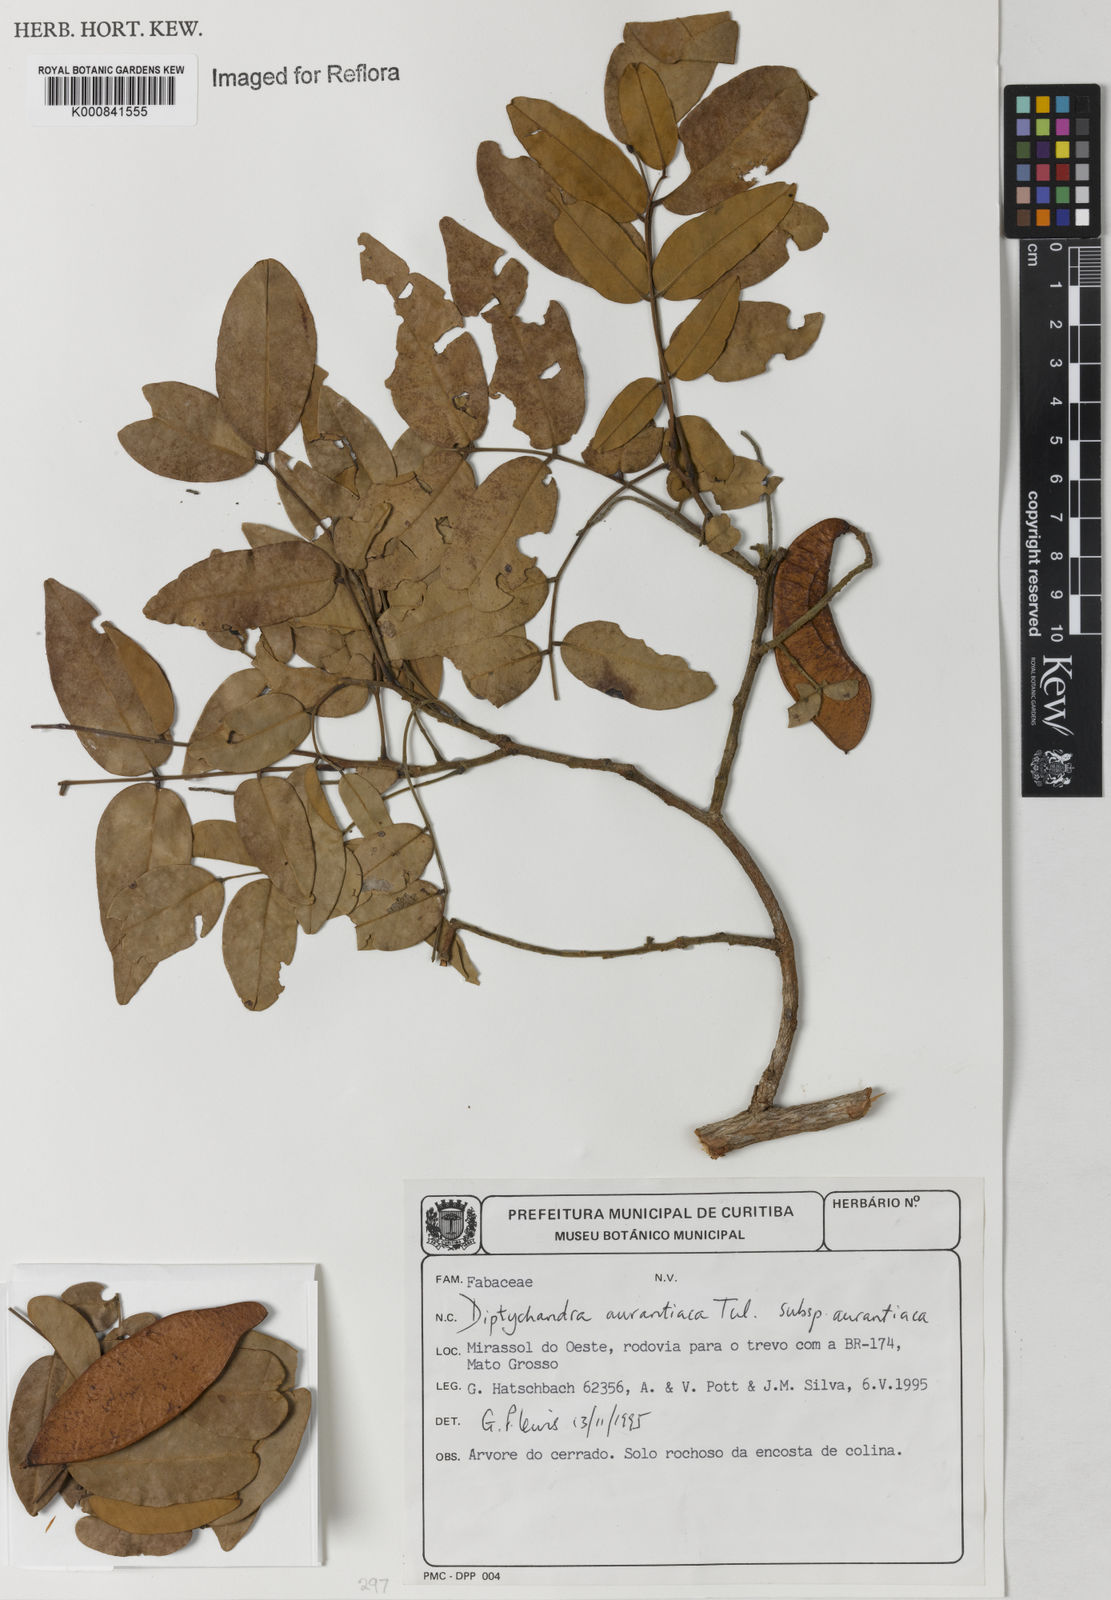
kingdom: Plantae
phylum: Tracheophyta
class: Magnoliopsida
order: Fabales
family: Fabaceae
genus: Diptychandra
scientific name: Diptychandra aurantiaca
